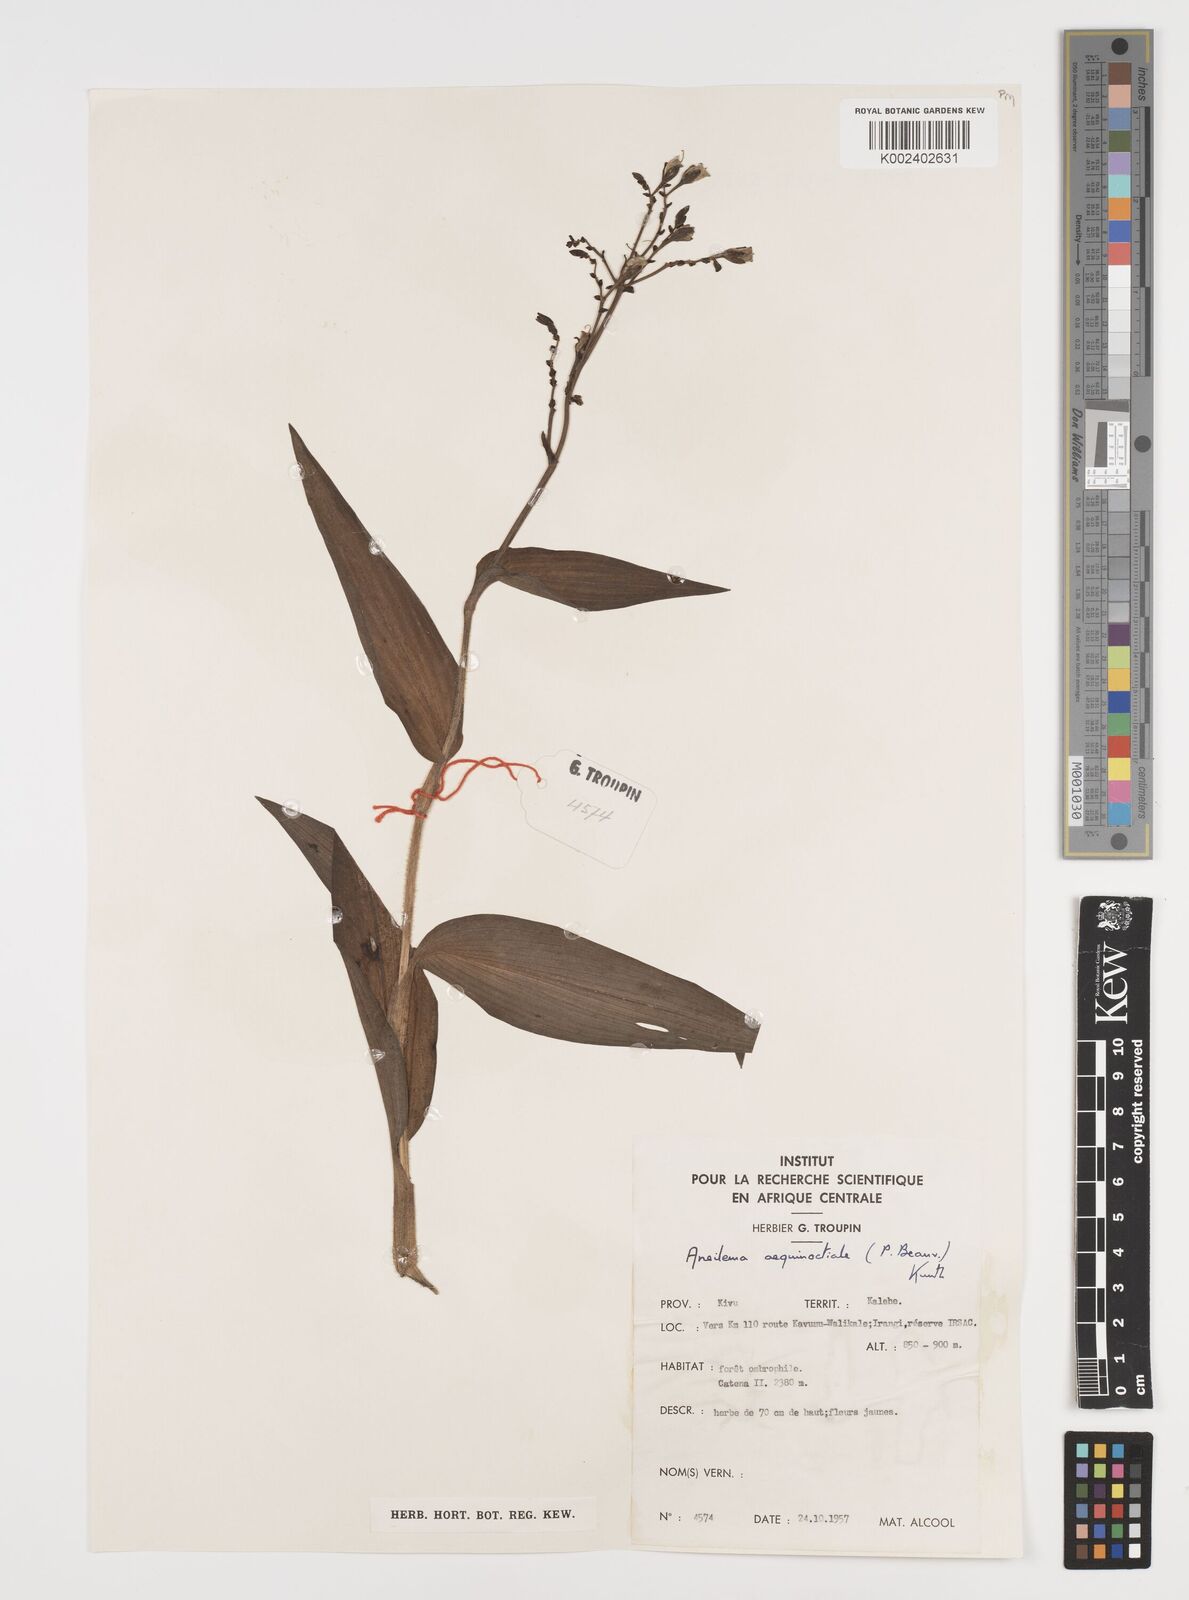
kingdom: Plantae
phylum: Tracheophyta
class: Liliopsida
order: Commelinales
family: Commelinaceae
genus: Aneilema
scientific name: Aneilema aequinoctiale
